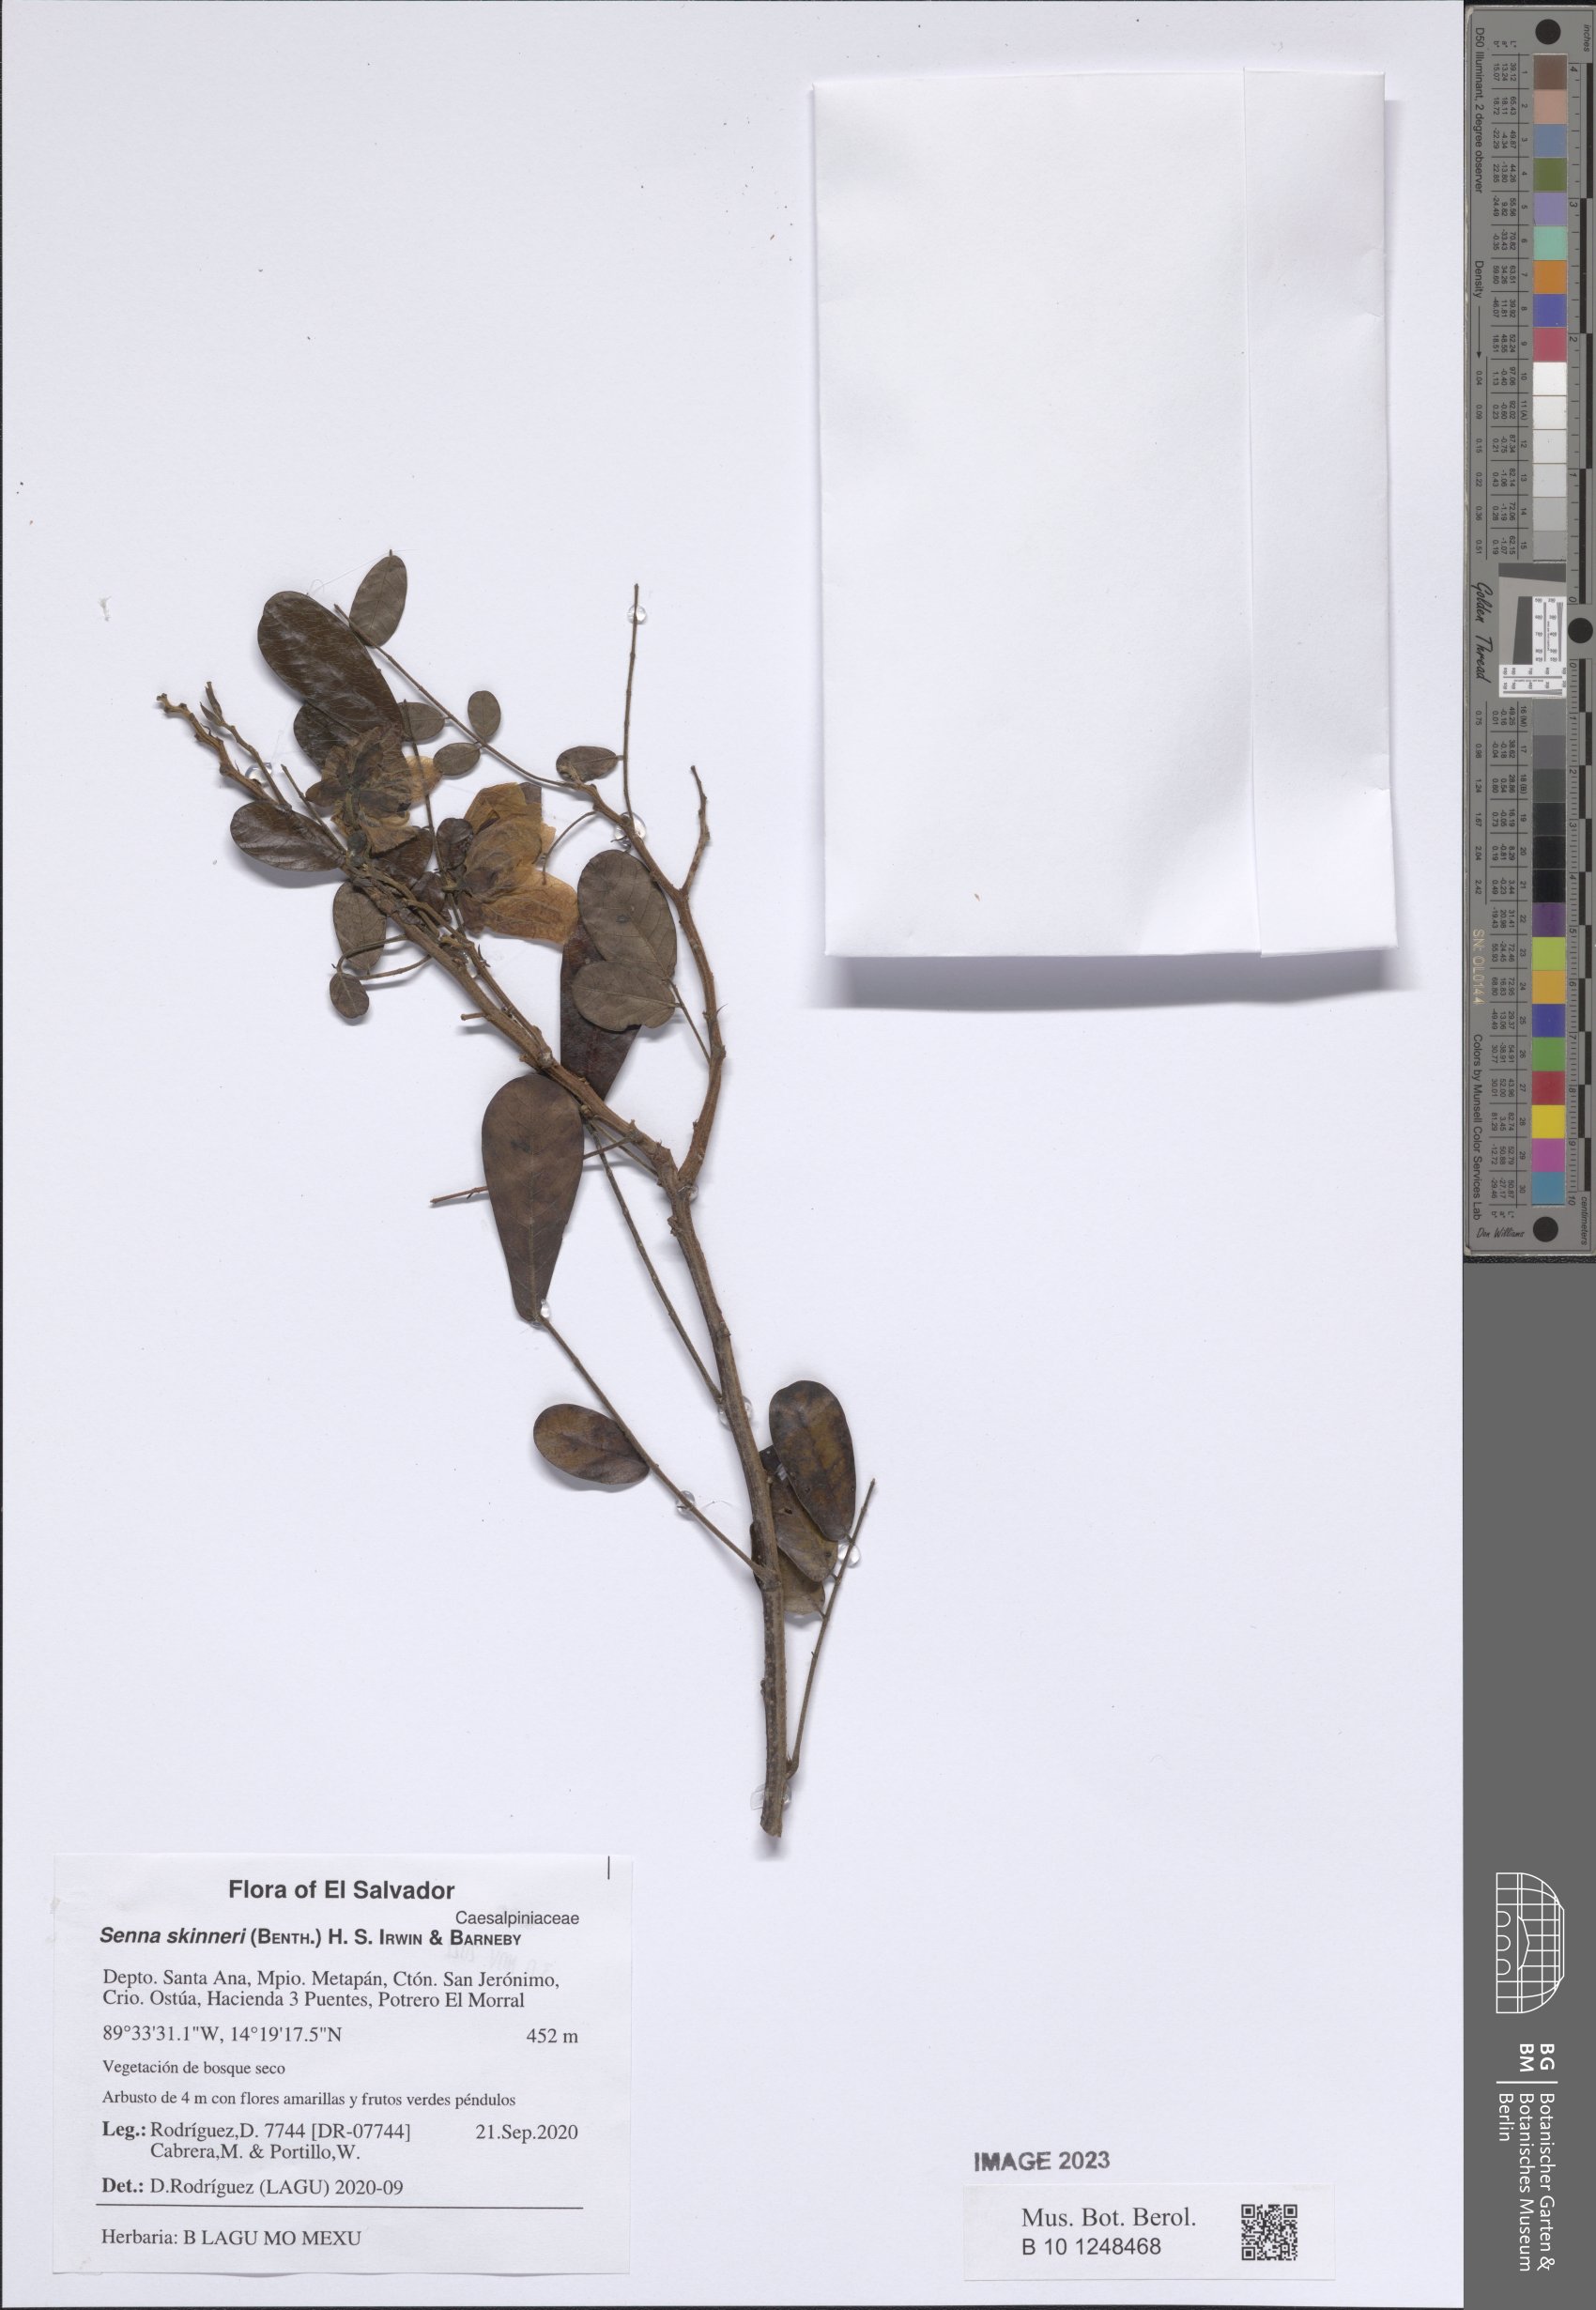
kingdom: Plantae
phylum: Tracheophyta
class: Magnoliopsida
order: Fabales
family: Fabaceae
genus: Senna
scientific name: Senna skinneri
